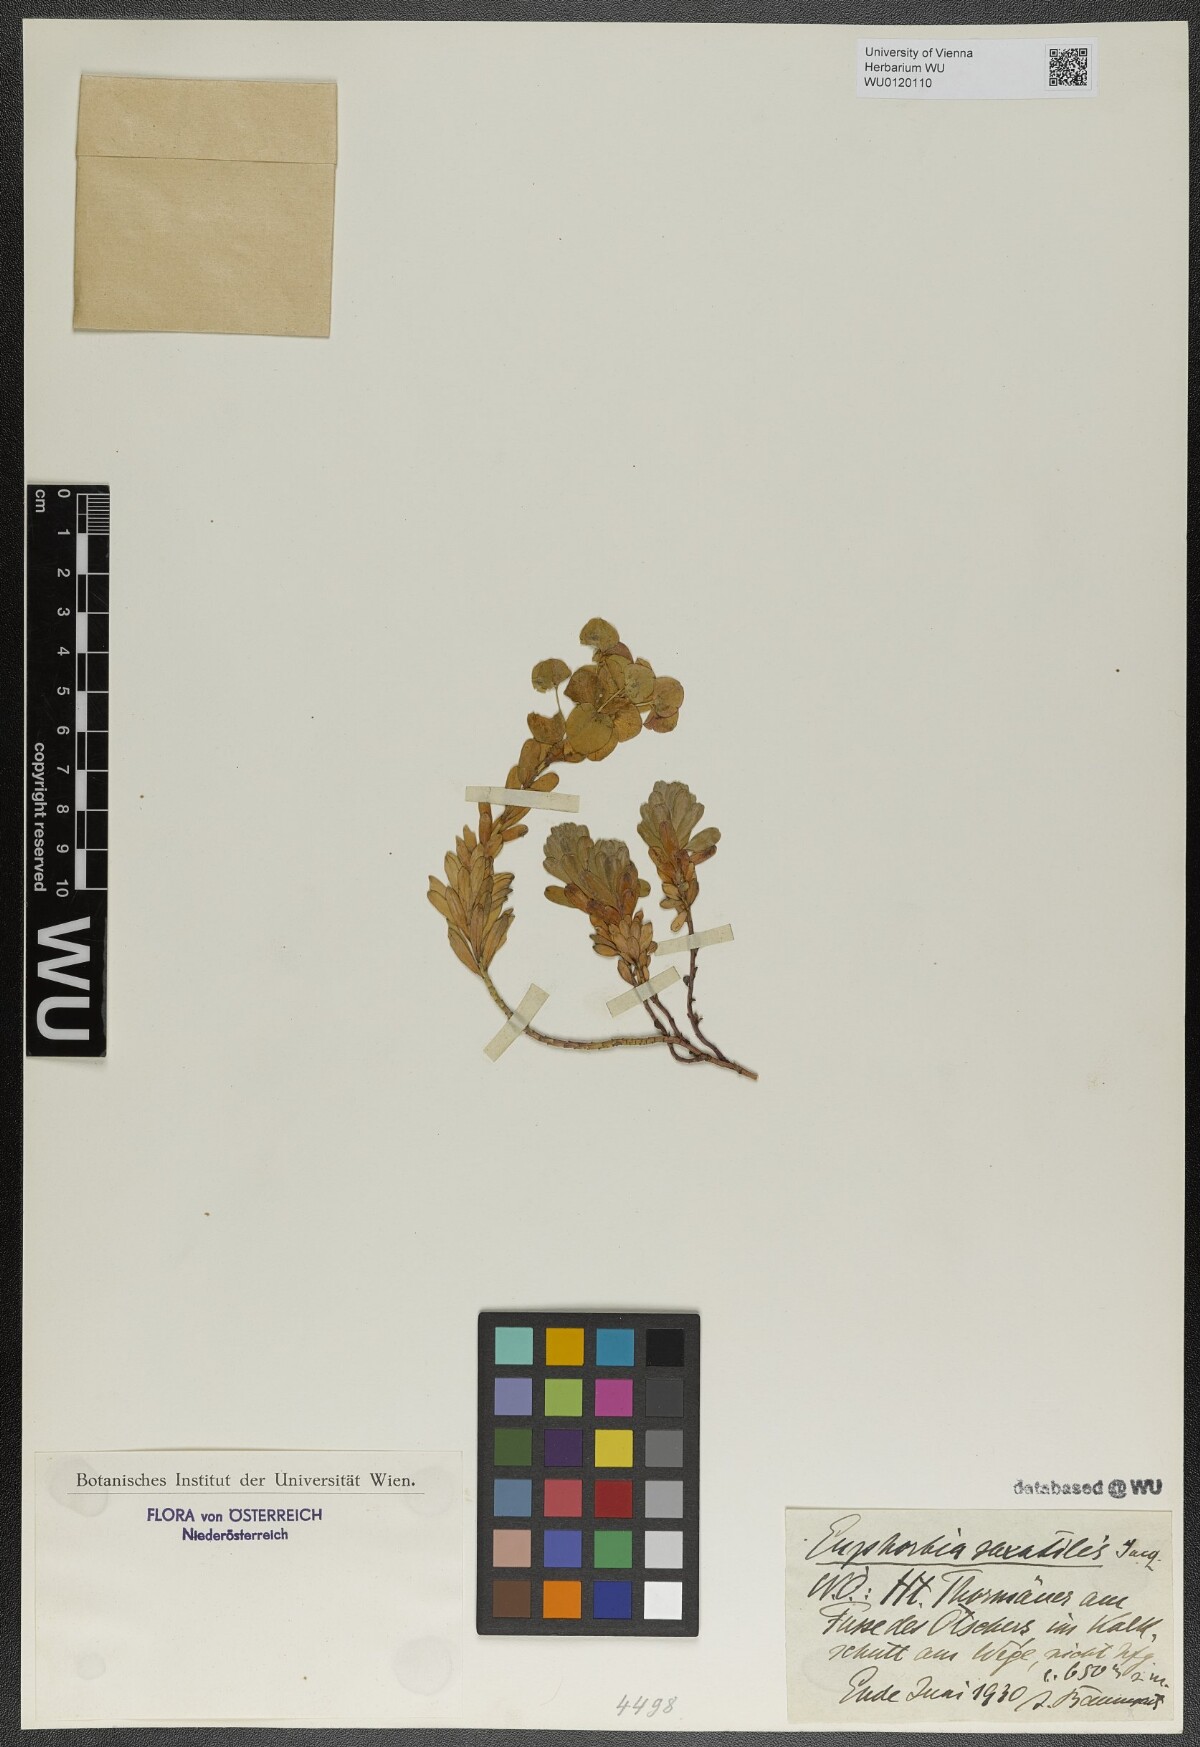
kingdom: Plantae
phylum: Tracheophyta
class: Magnoliopsida
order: Malpighiales
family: Euphorbiaceae
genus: Euphorbia
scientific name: Euphorbia saxatilis
